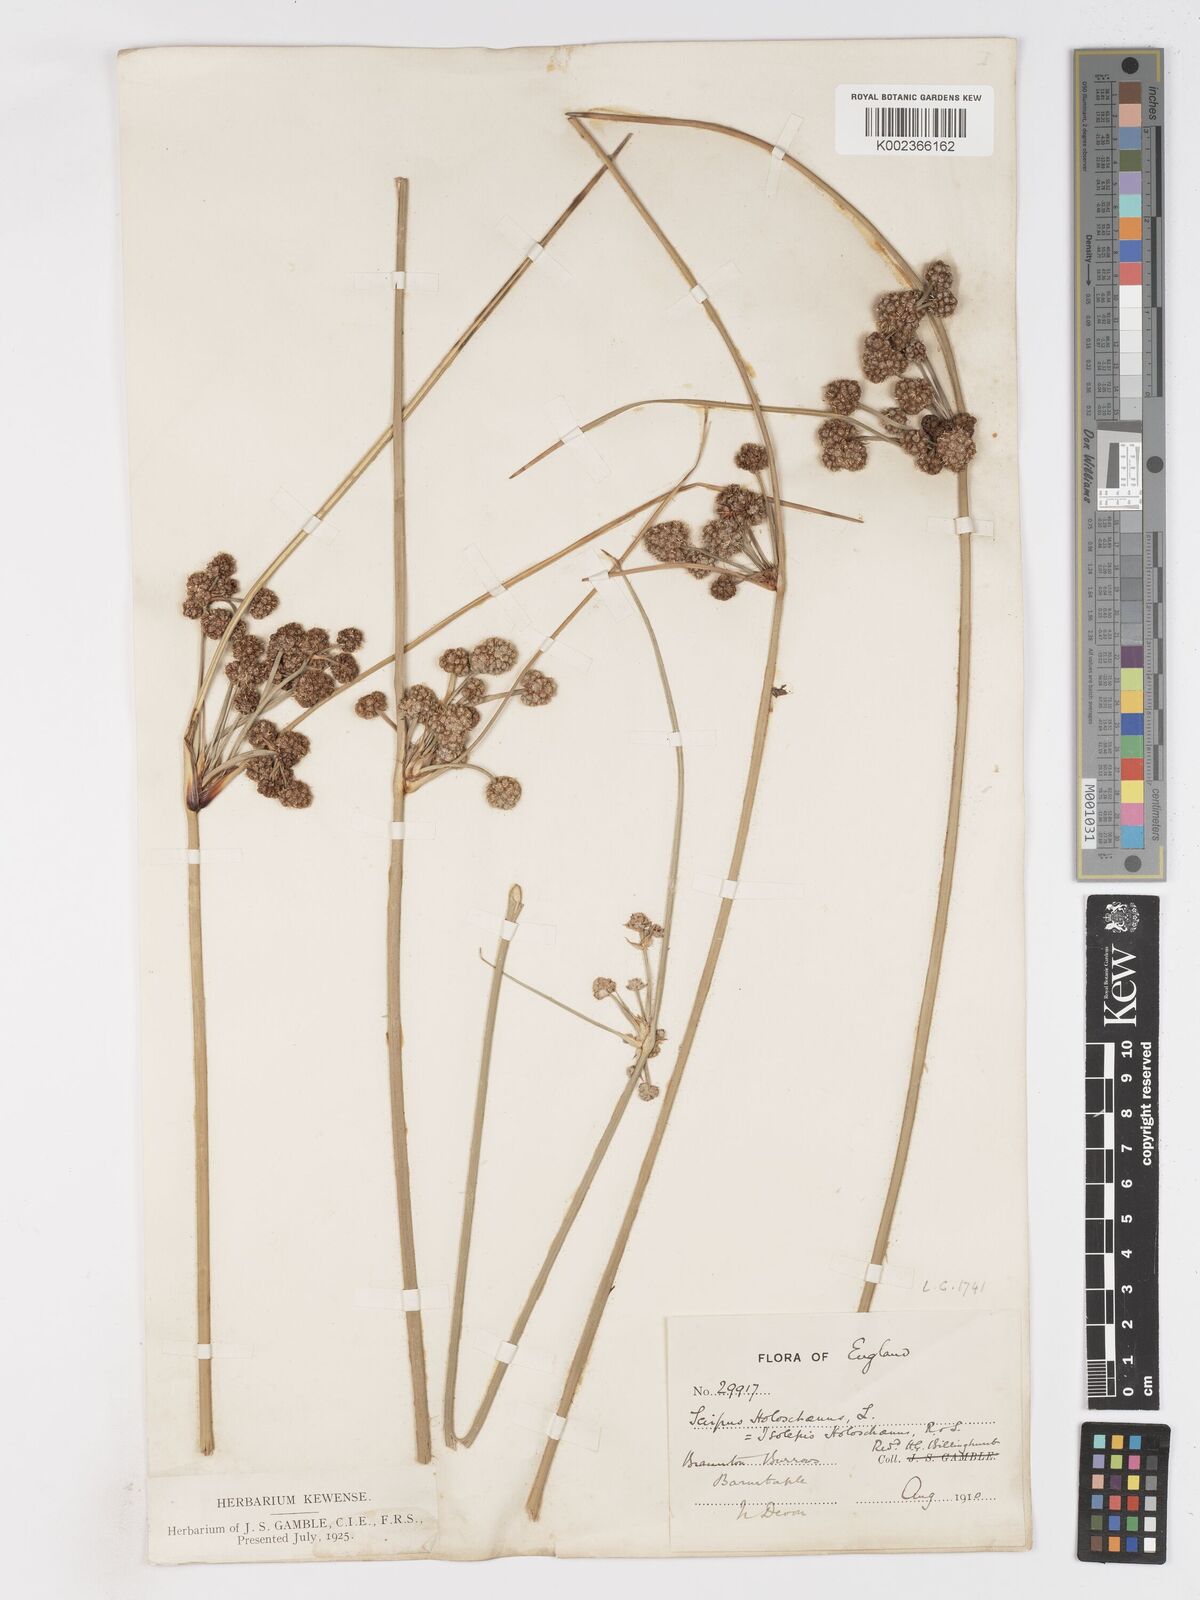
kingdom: Plantae
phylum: Tracheophyta
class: Liliopsida
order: Poales
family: Cyperaceae
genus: Scirpoides
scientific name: Scirpoides holoschoenus
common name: Round-headed club-rush
